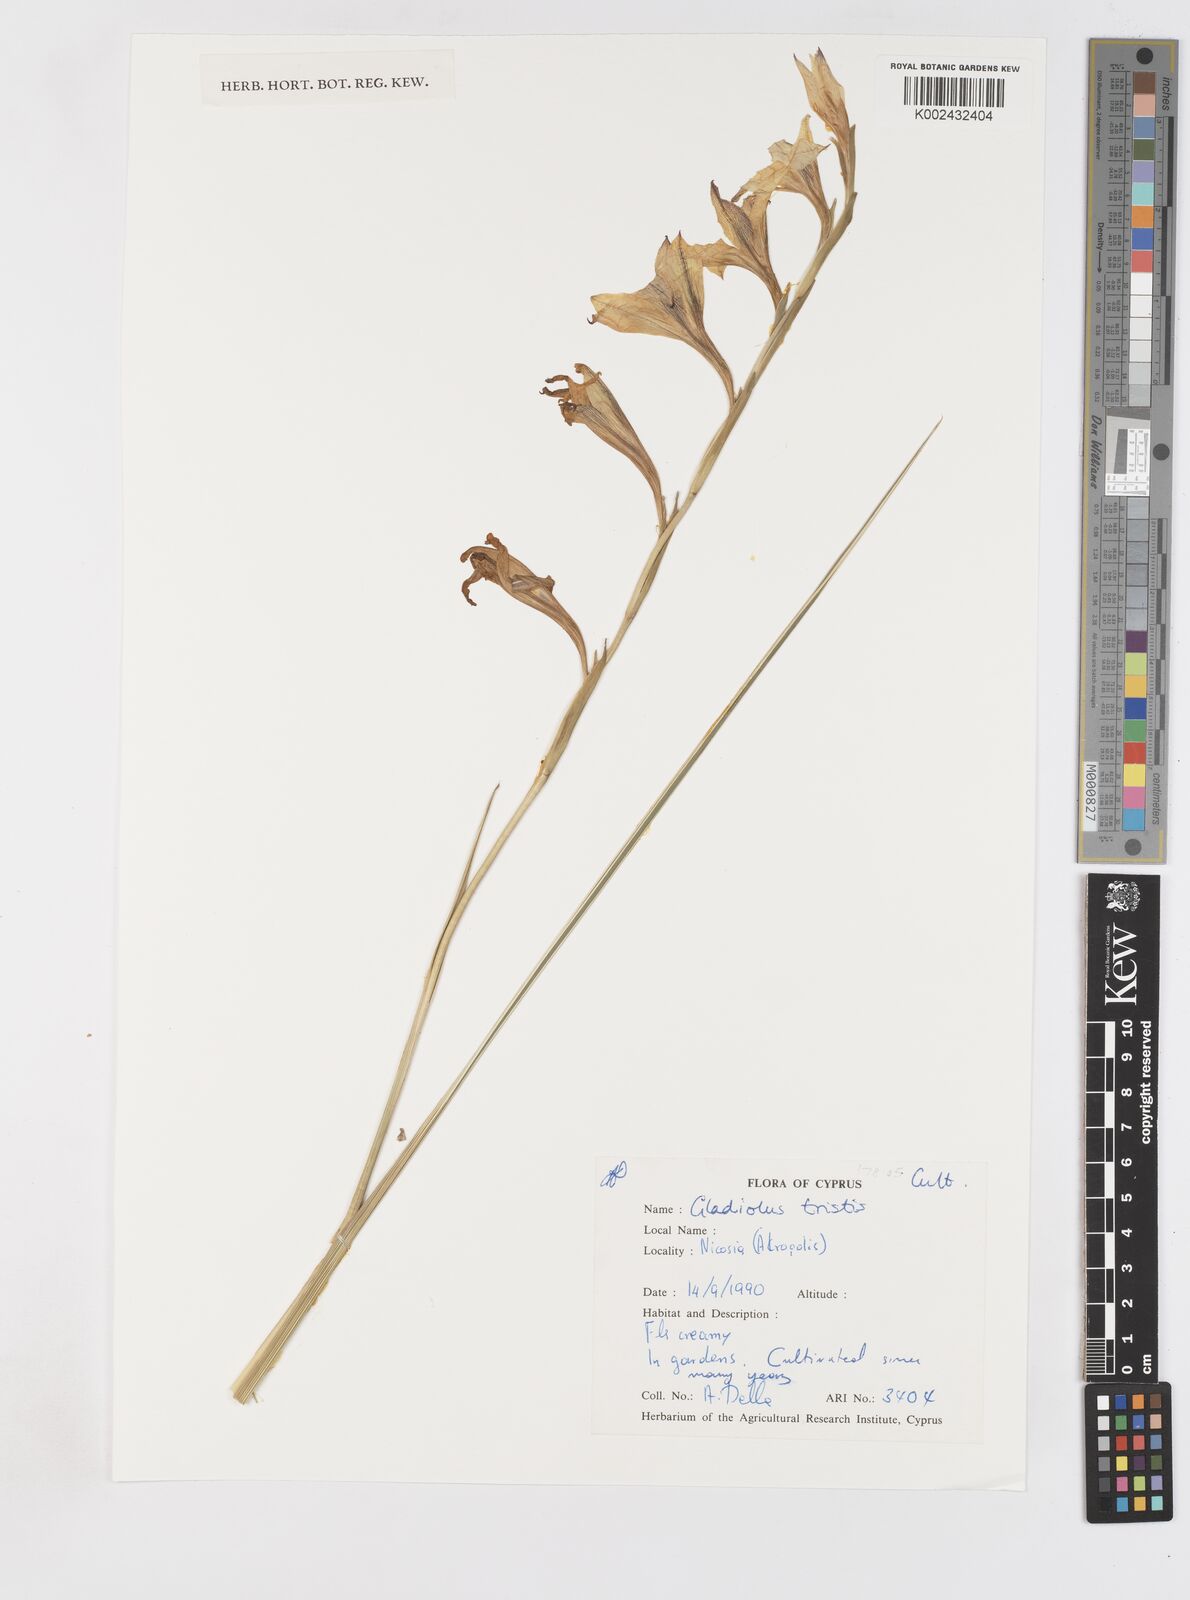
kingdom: Plantae
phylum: Tracheophyta
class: Liliopsida
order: Asparagales
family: Iridaceae
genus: Gladiolus
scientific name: Gladiolus tristis
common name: Ever-flowering gladiolus
